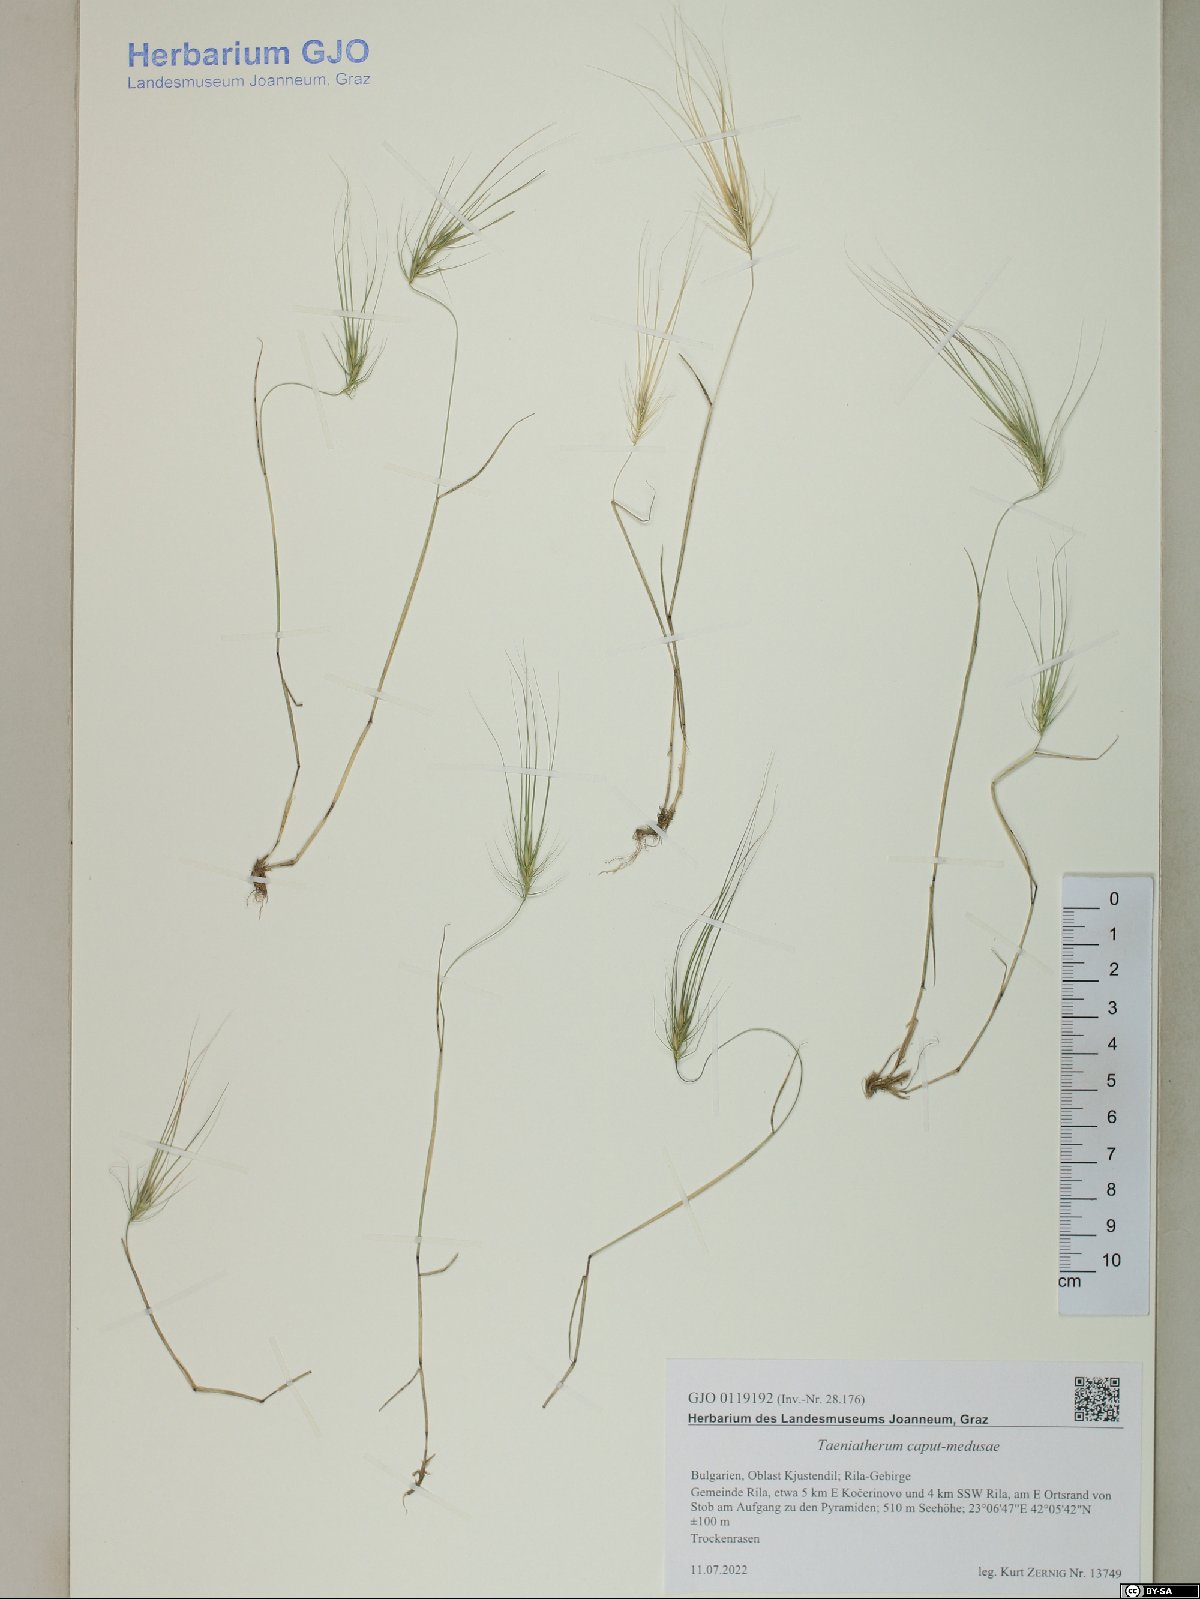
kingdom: Plantae
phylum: Tracheophyta
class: Liliopsida
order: Poales
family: Poaceae
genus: Taeniatherum
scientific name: Taeniatherum caput-medusae
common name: Medusahead
